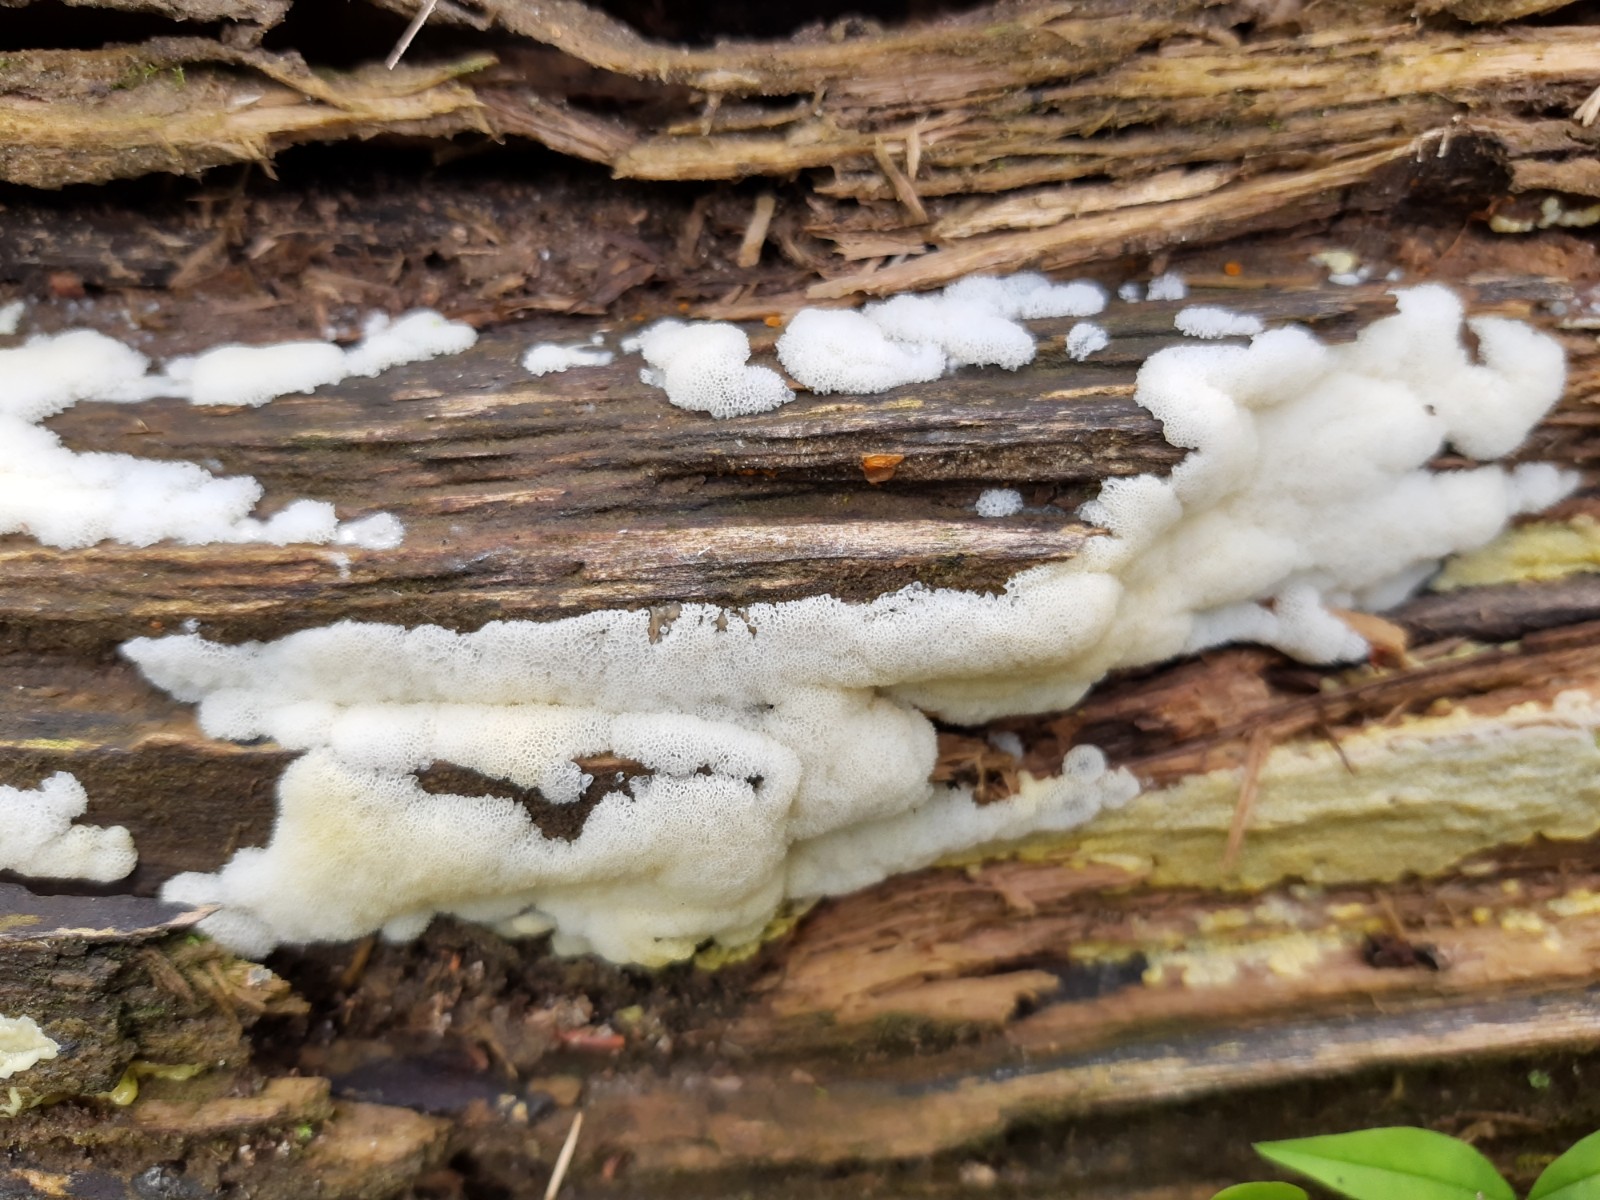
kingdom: Protozoa
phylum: Mycetozoa
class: Protosteliomycetes
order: Ceratiomyxales
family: Ceratiomyxaceae
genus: Ceratiomyxa
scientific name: Ceratiomyxa fruticulosa
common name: Honeycomb coral slime mold
